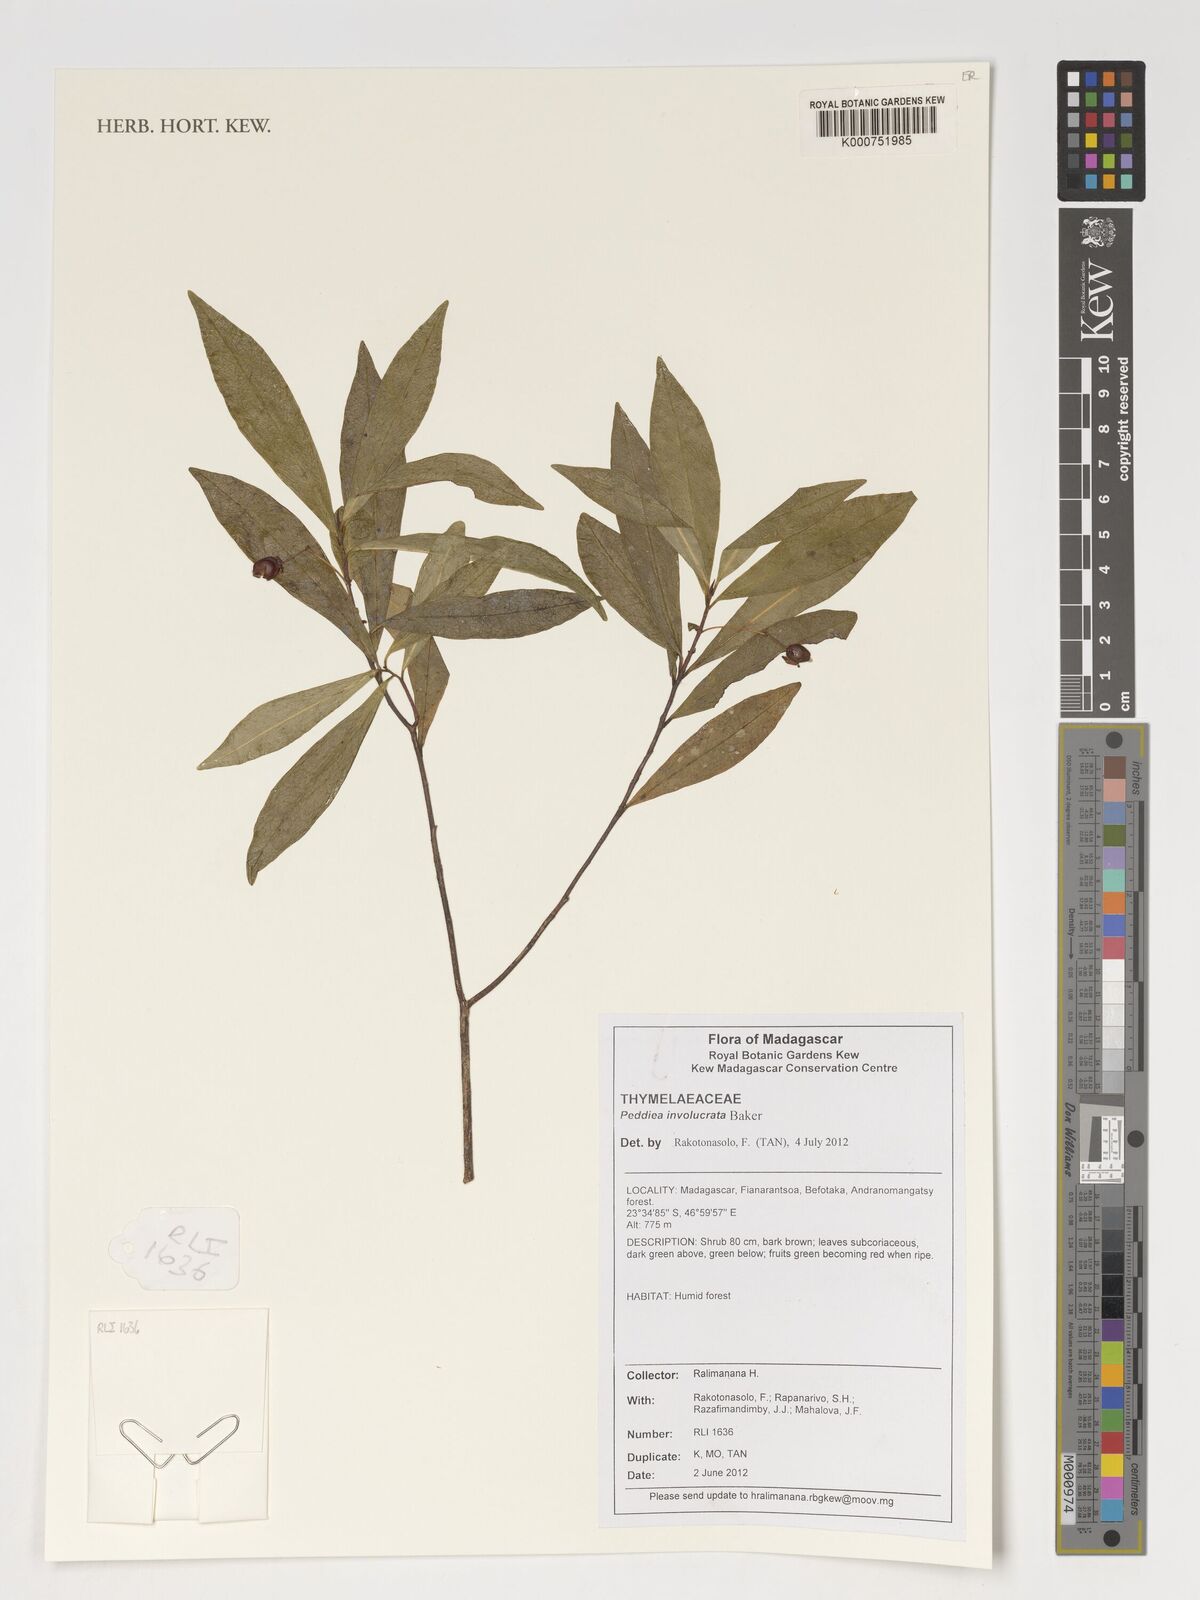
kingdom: Plantae
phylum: Tracheophyta
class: Magnoliopsida
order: Malvales
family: Thymelaeaceae
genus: Peddiea
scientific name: Peddiea involucrata
